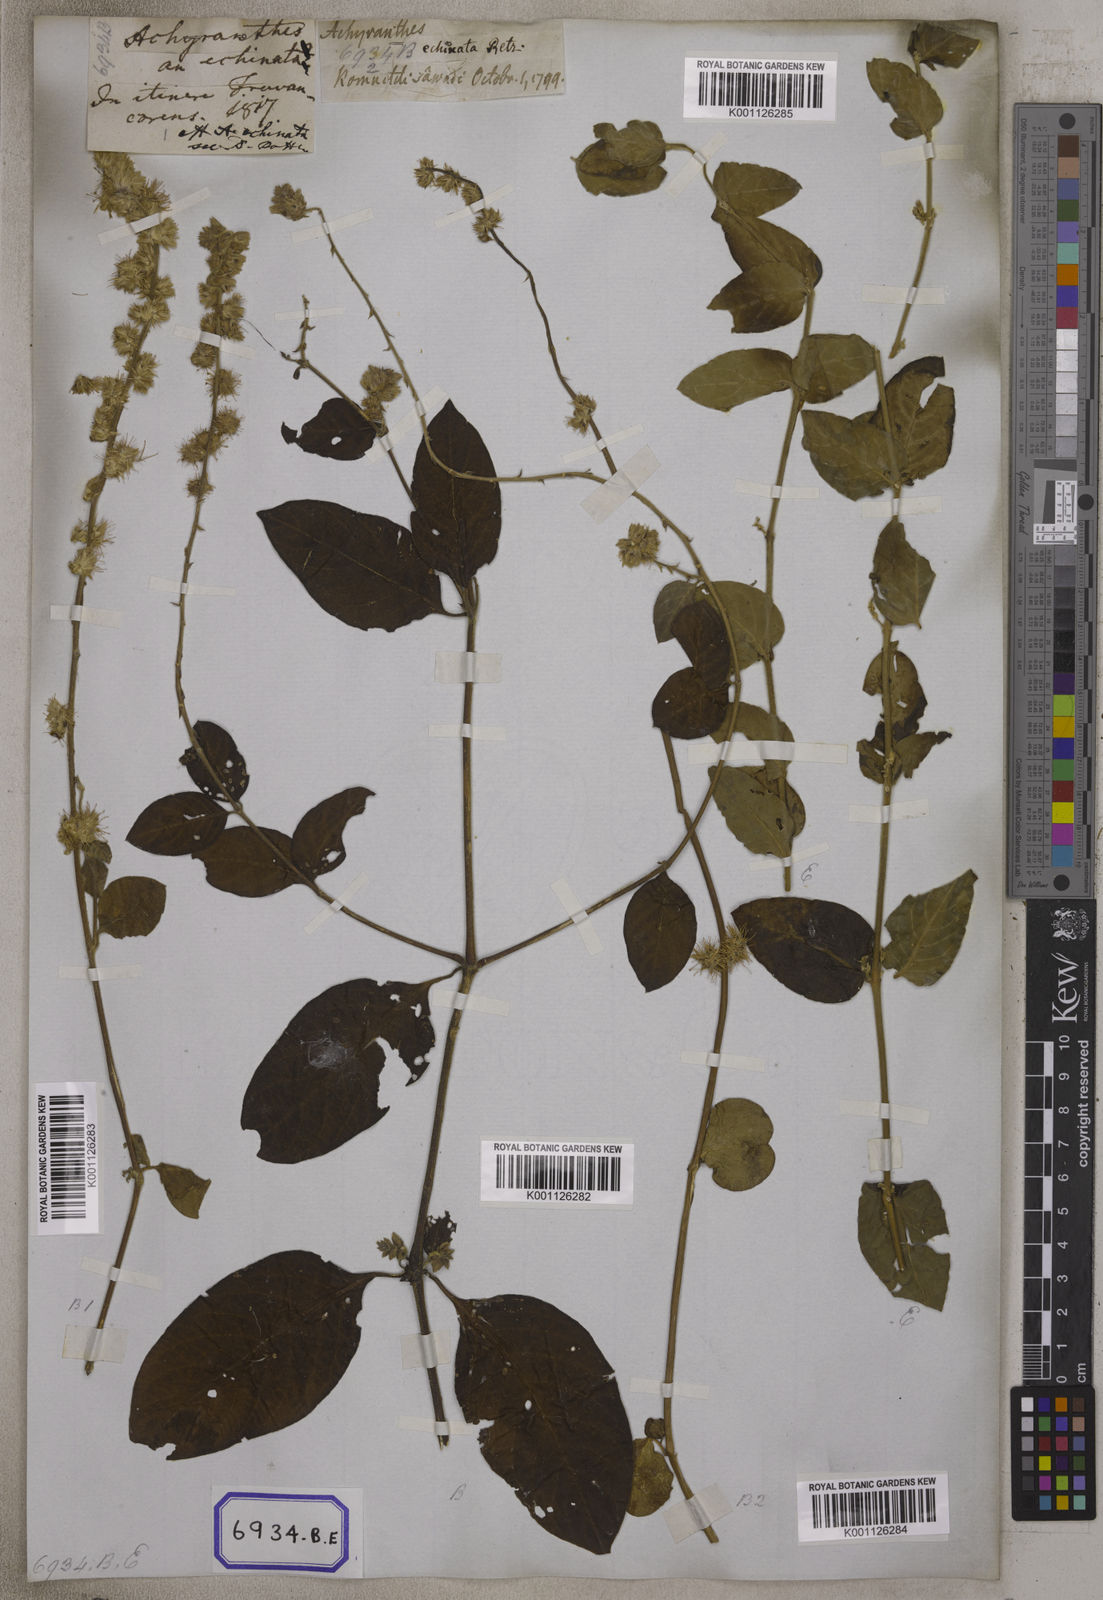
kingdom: Plantae
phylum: Tracheophyta
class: Magnoliopsida
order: Caryophyllales
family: Amaranthaceae
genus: Pupalia
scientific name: Pupalia lappacea
